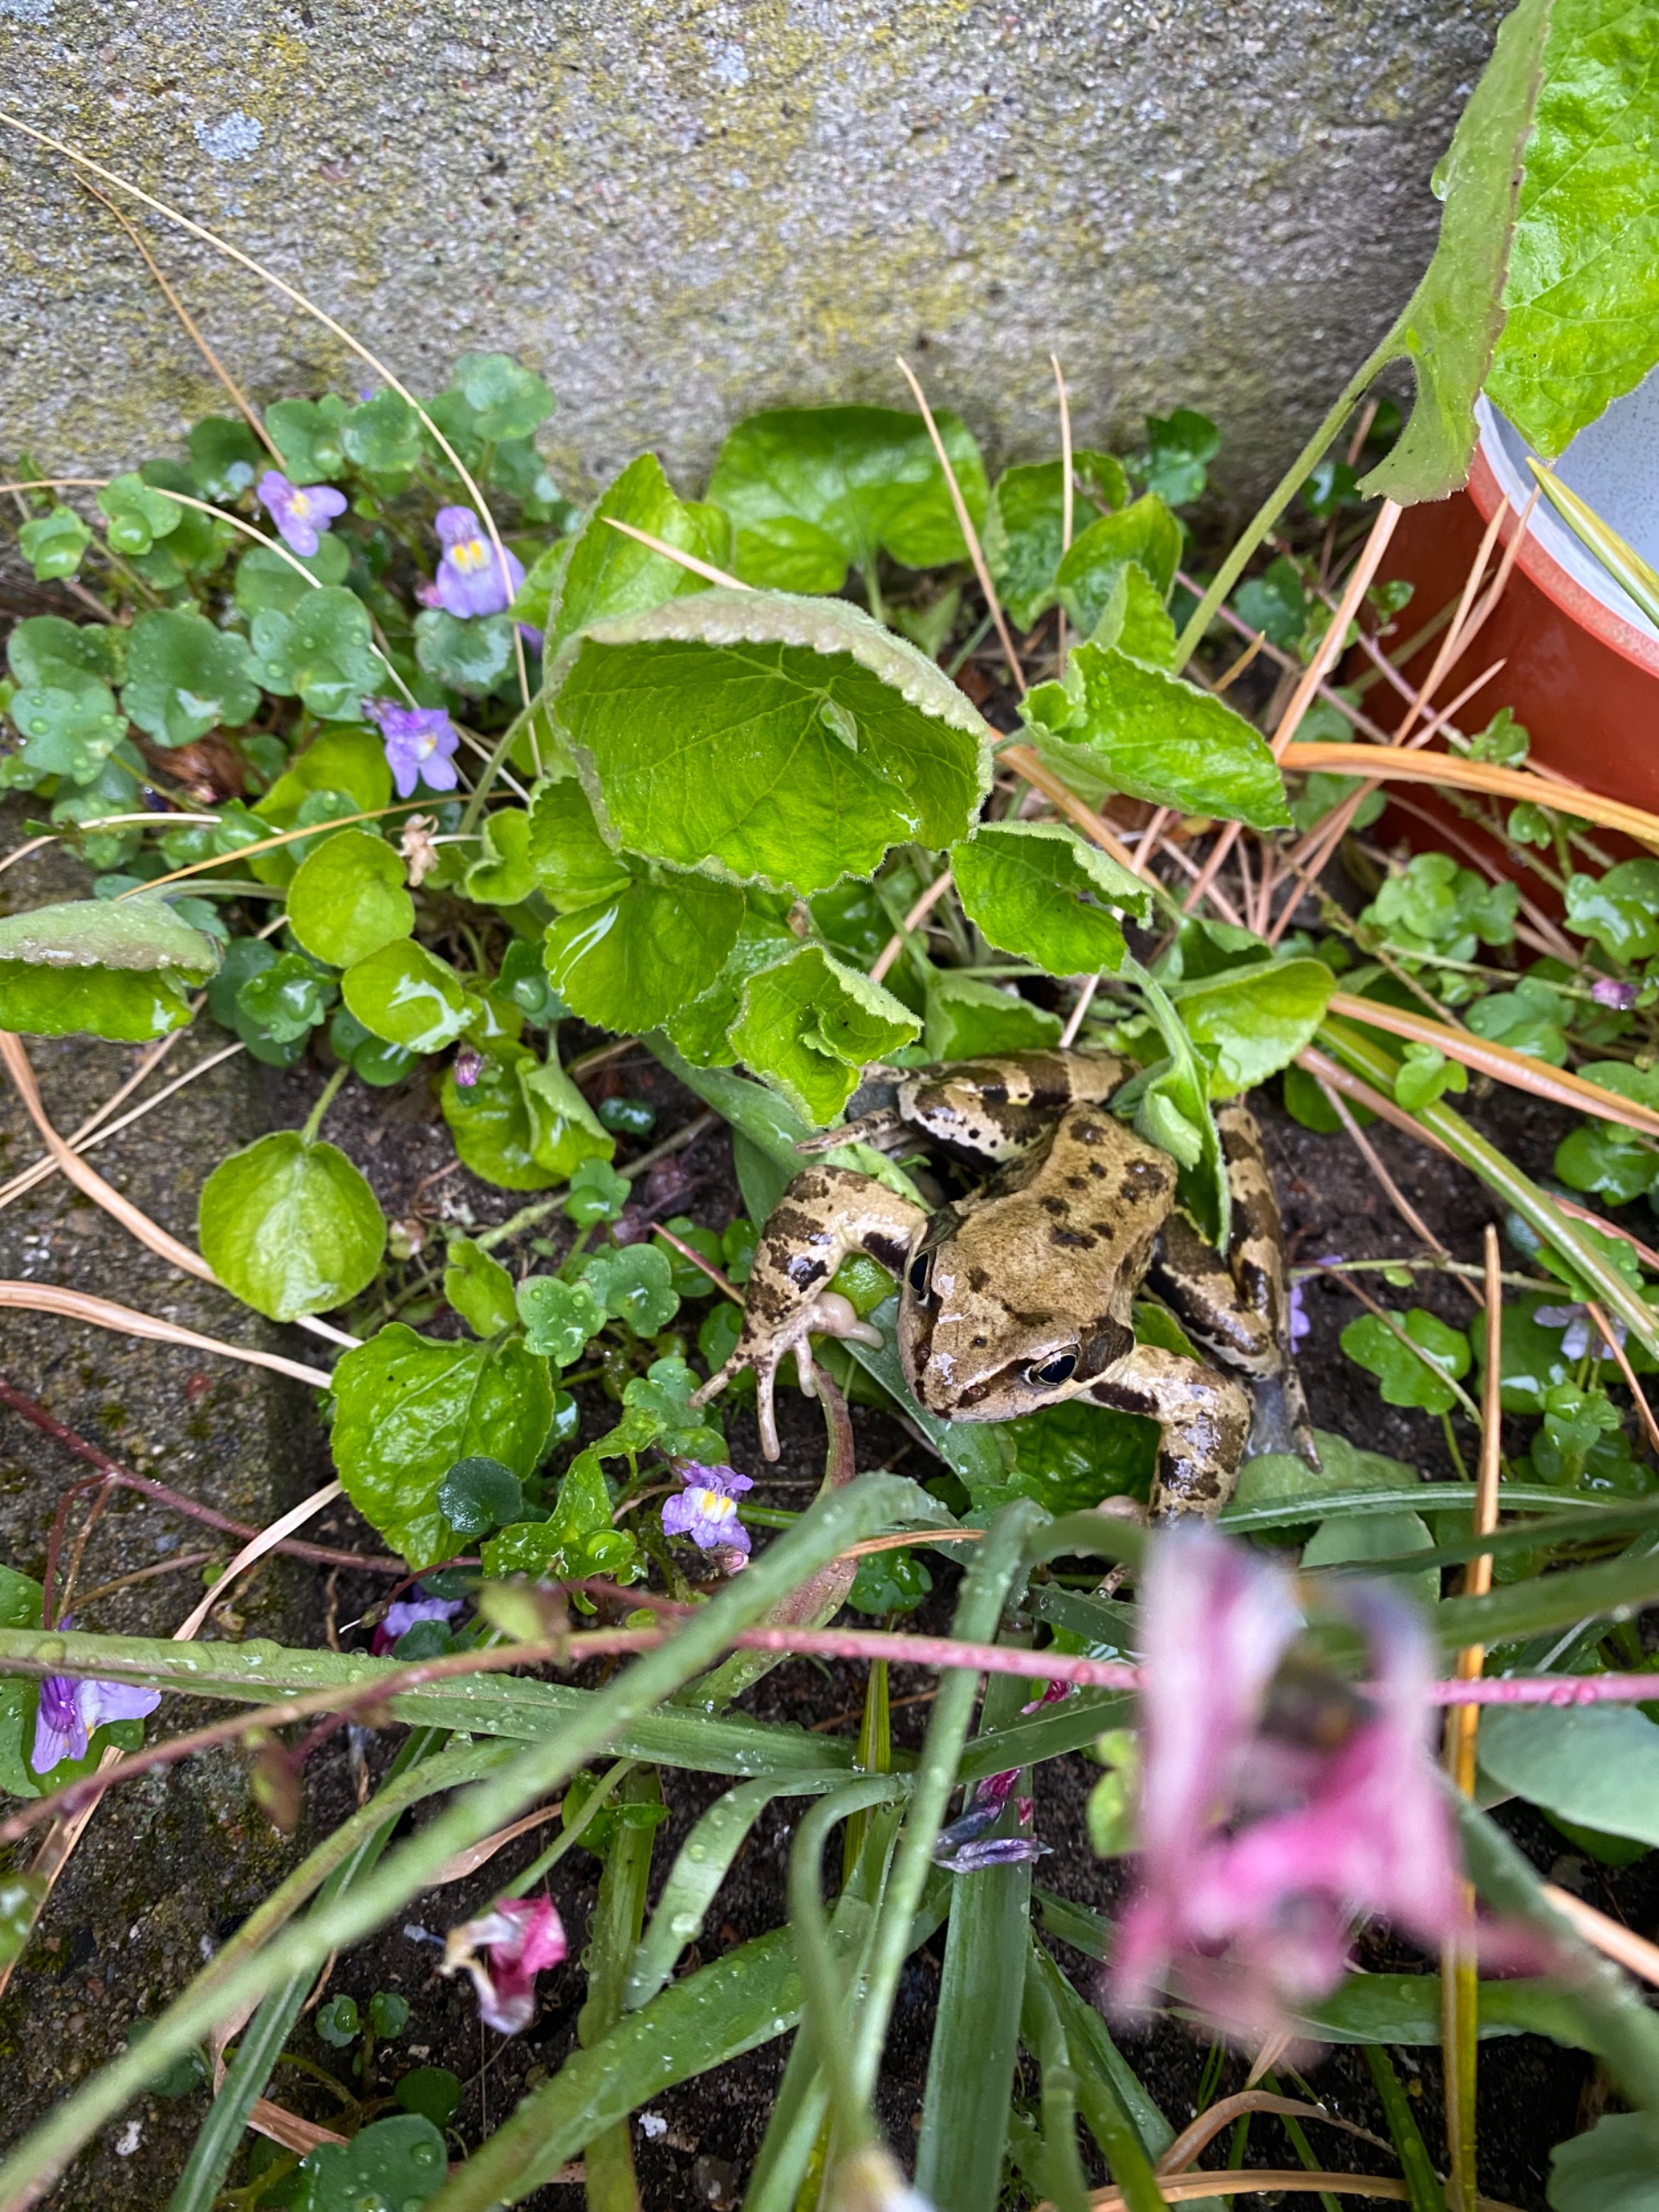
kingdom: Animalia
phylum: Chordata
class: Amphibia
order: Anura
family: Ranidae
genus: Rana
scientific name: Rana temporaria
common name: Butsnudet frø
